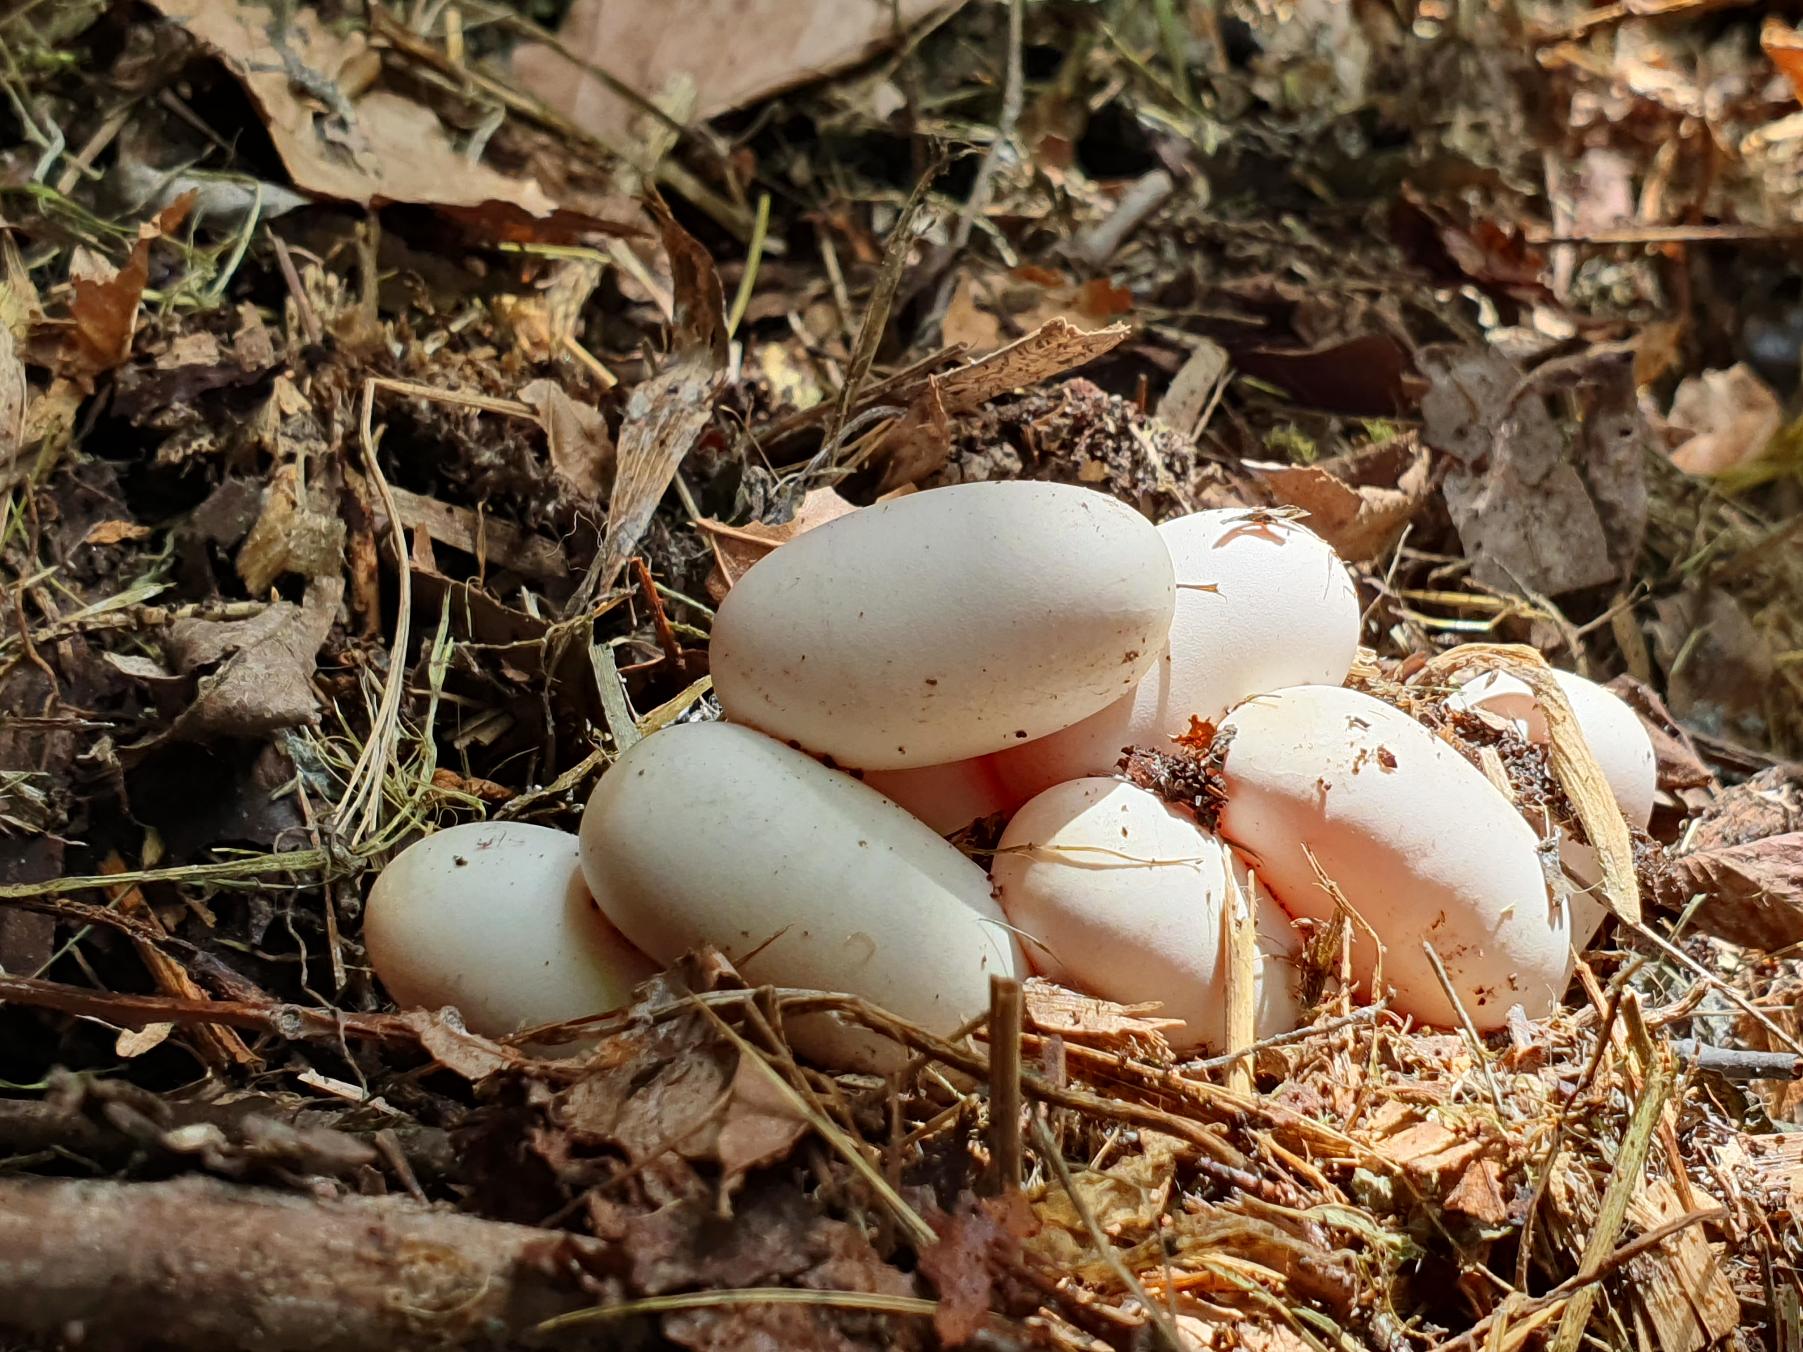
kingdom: Animalia
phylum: Chordata
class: Squamata
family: Colubridae
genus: Natrix
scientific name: Natrix natrix
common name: Snog
